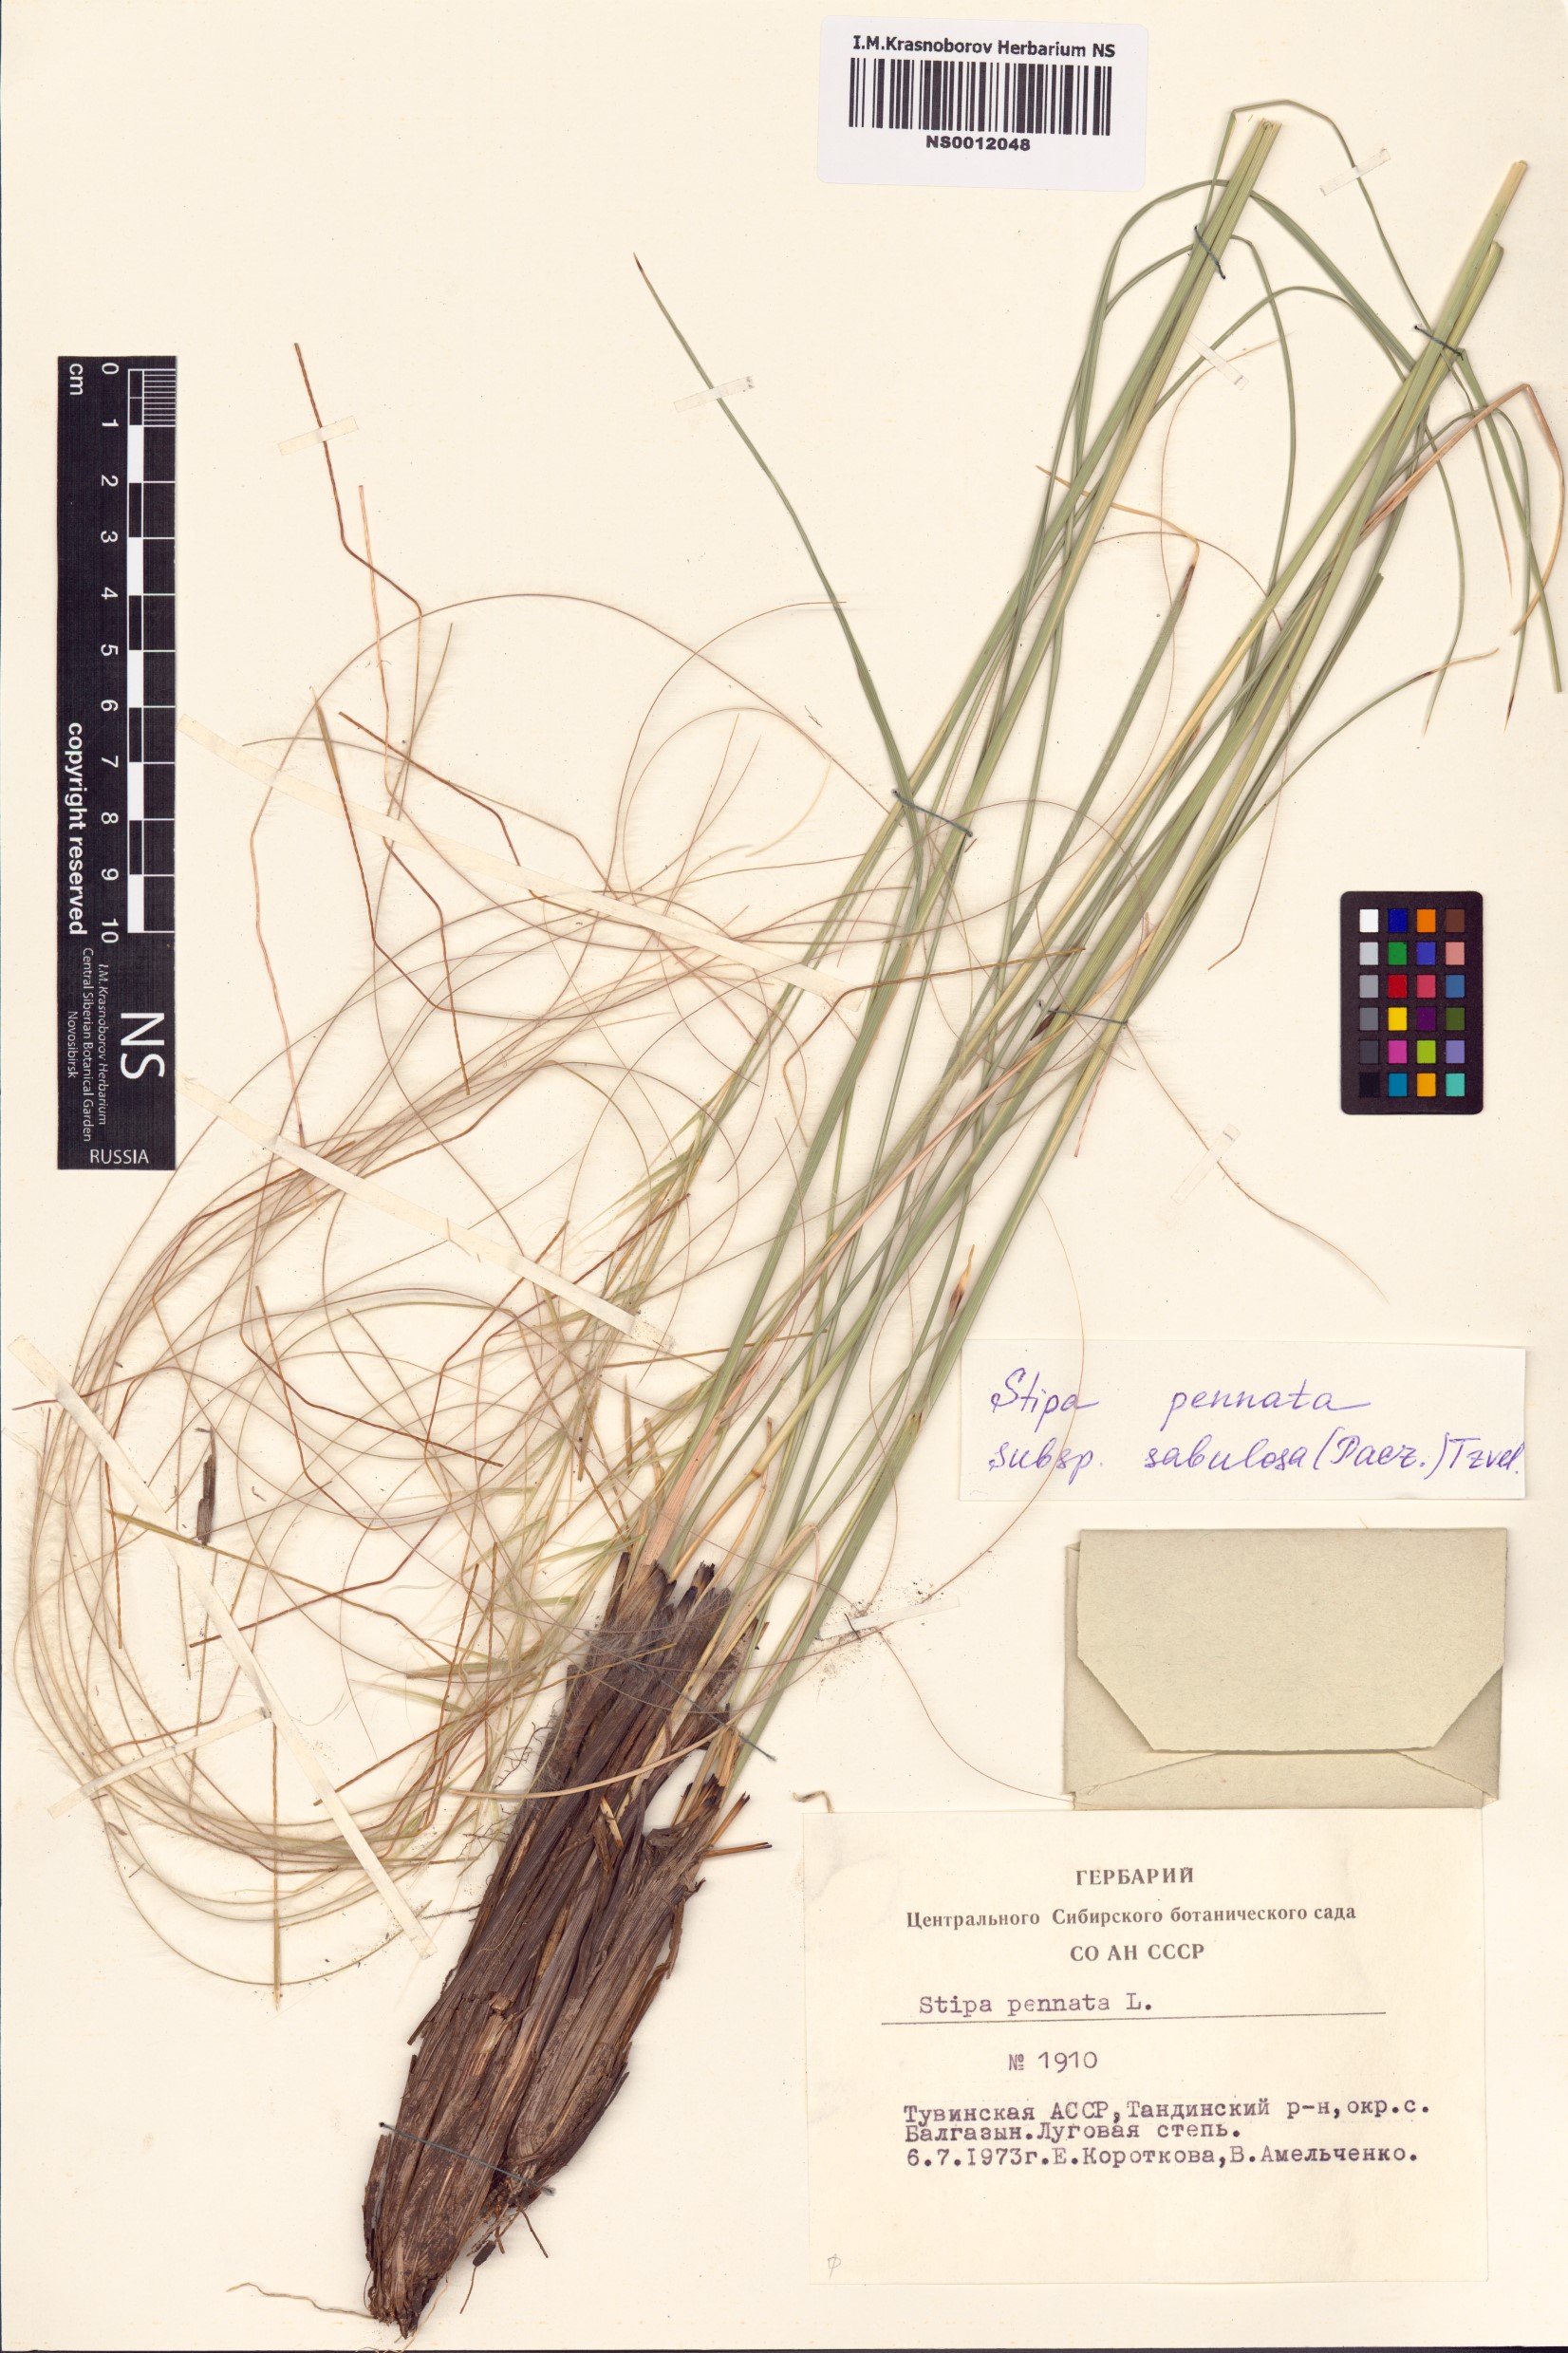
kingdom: Plantae
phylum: Tracheophyta
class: Liliopsida
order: Poales
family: Poaceae
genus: Stipa
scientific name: Stipa borysthenica
